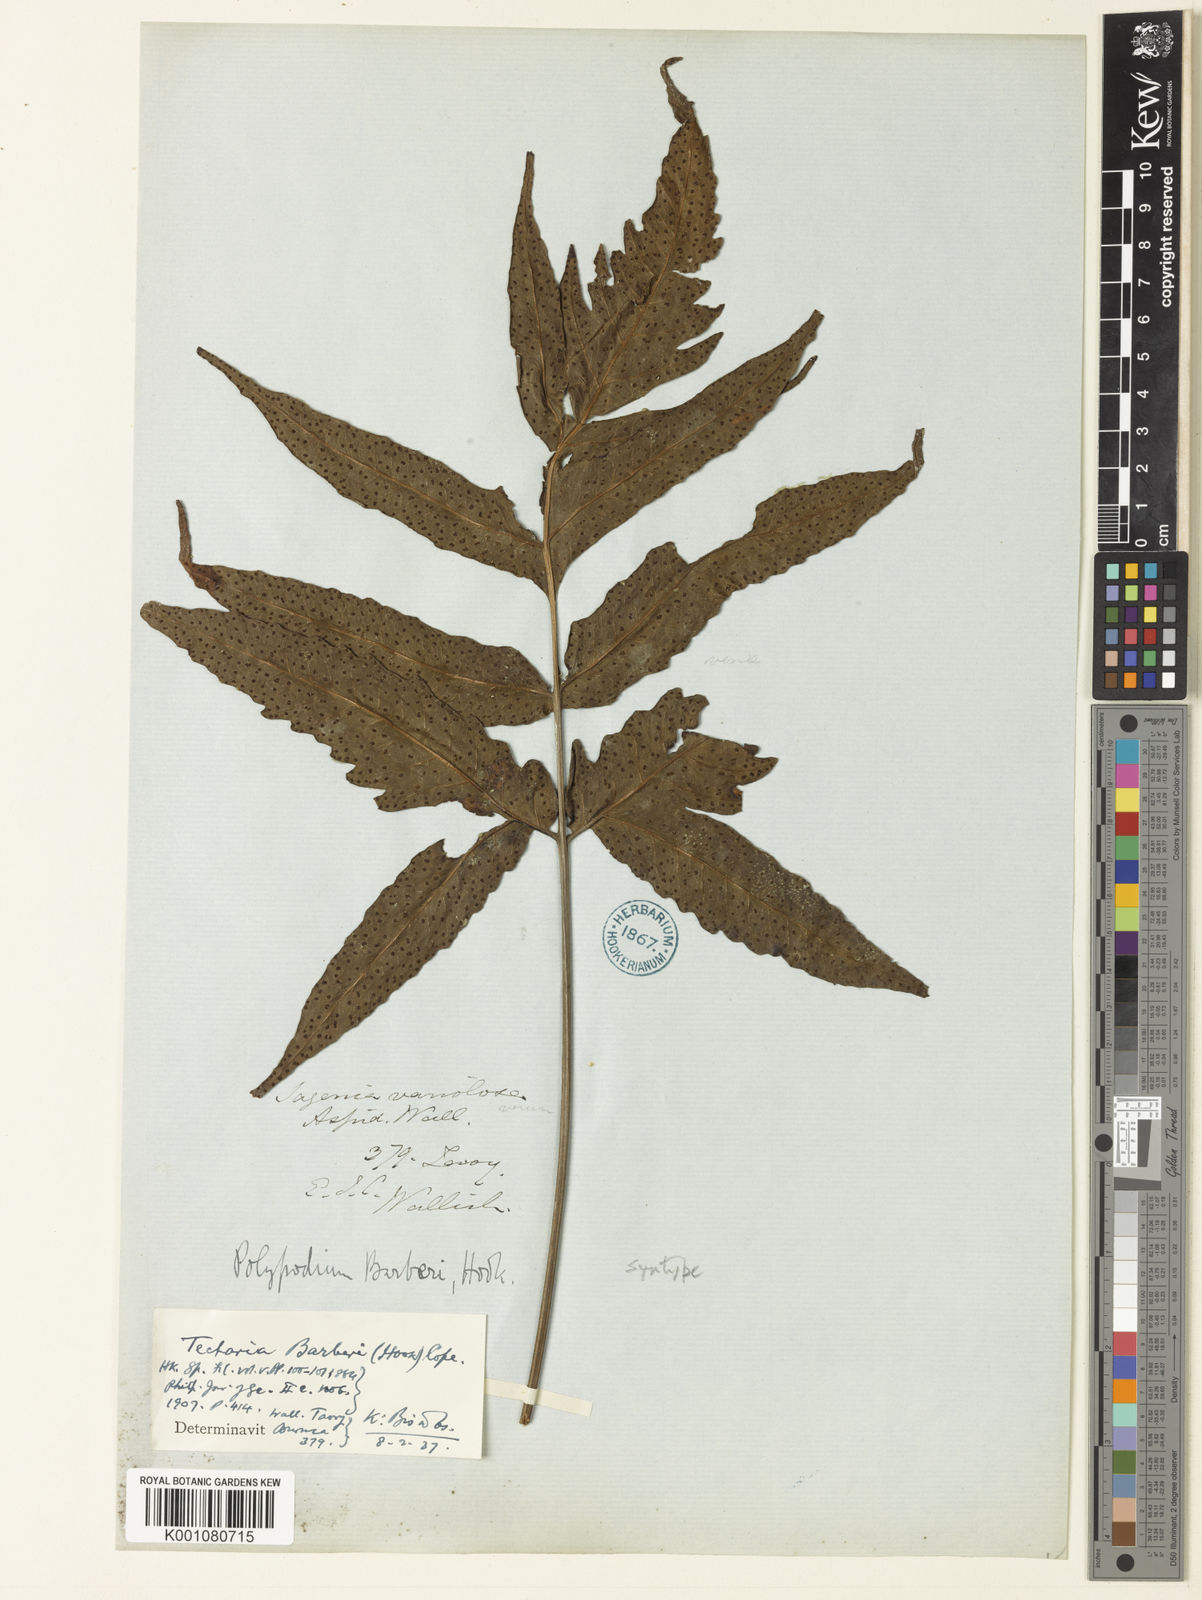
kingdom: Plantae
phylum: Tracheophyta
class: Polypodiopsida
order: Polypodiales
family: Tectariaceae
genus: Tectaria
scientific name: Tectaria barberi
